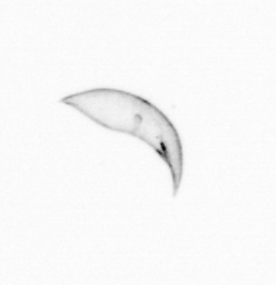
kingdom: Chromista
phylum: Ochrophyta
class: Bacillariophyceae
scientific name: Bacillariophyceae
